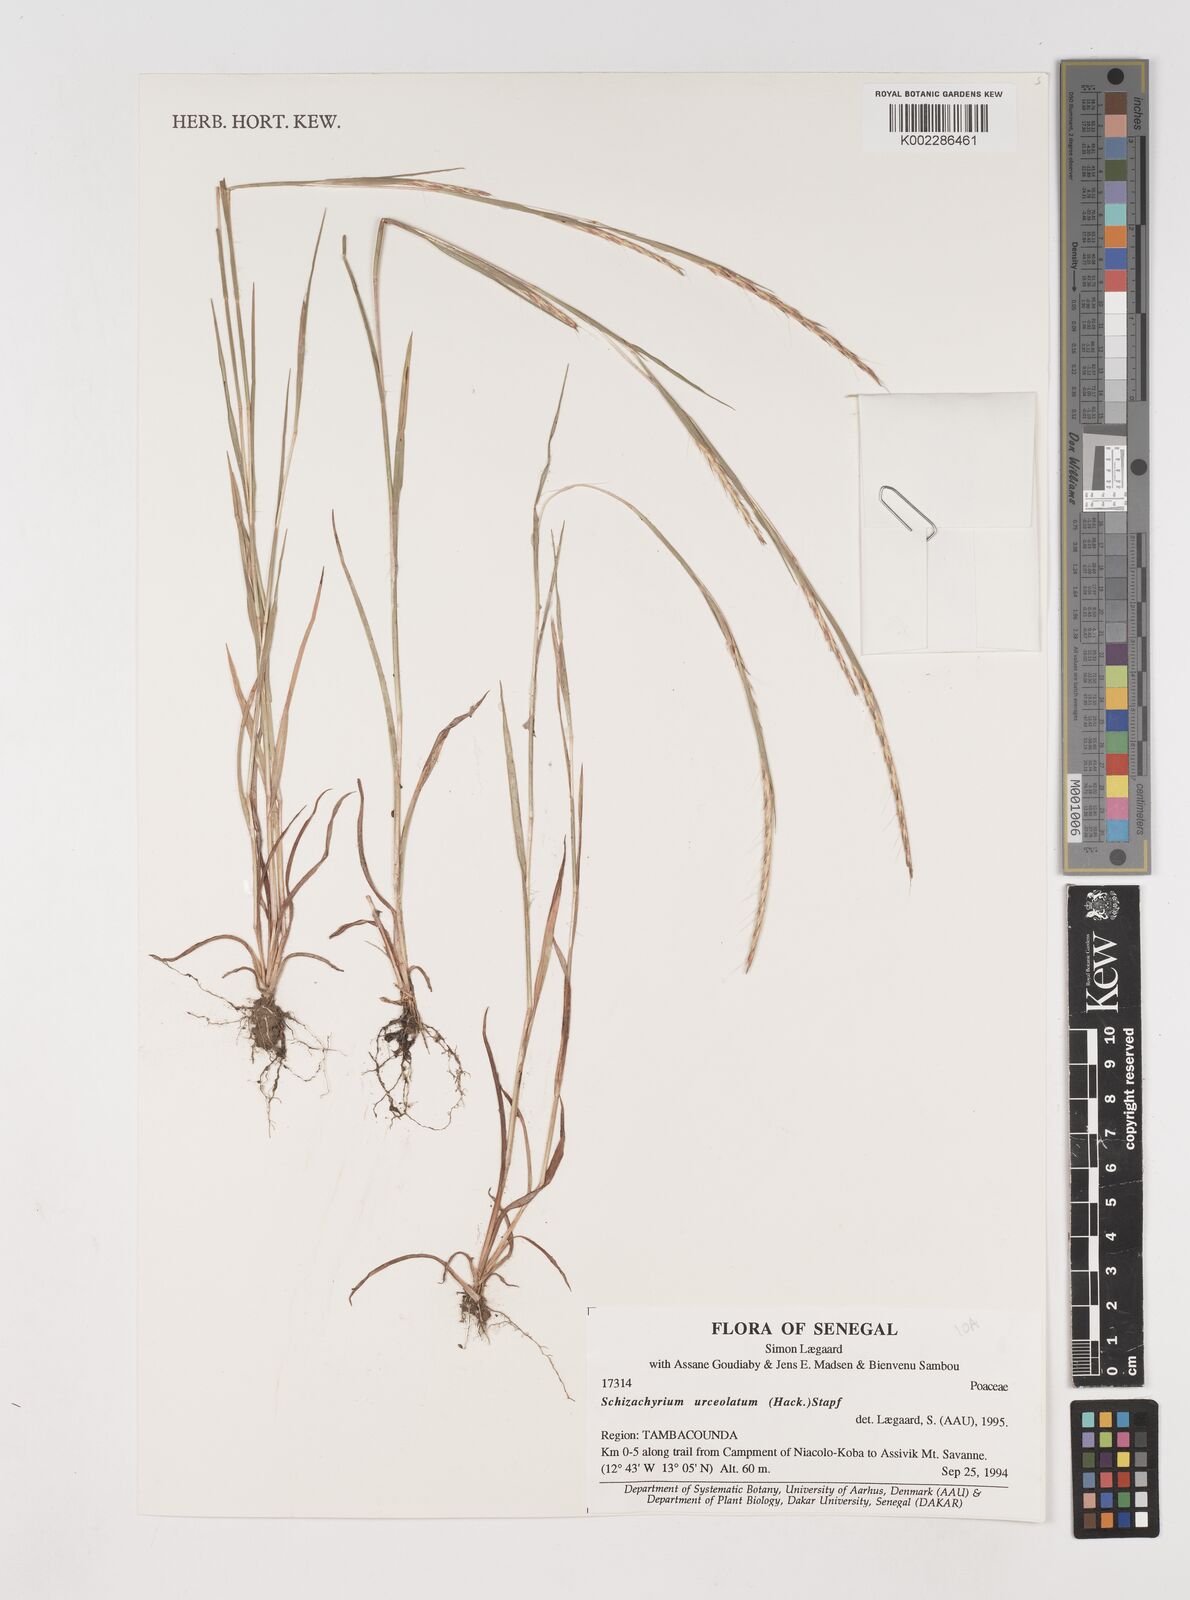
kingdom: Plantae
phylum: Tracheophyta
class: Liliopsida
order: Poales
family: Poaceae
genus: Schizachyrium
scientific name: Schizachyrium urceolatum
